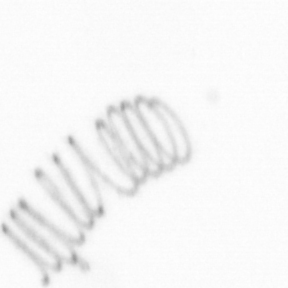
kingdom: Chromista
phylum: Ochrophyta
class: Bacillariophyceae
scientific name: Bacillariophyceae
